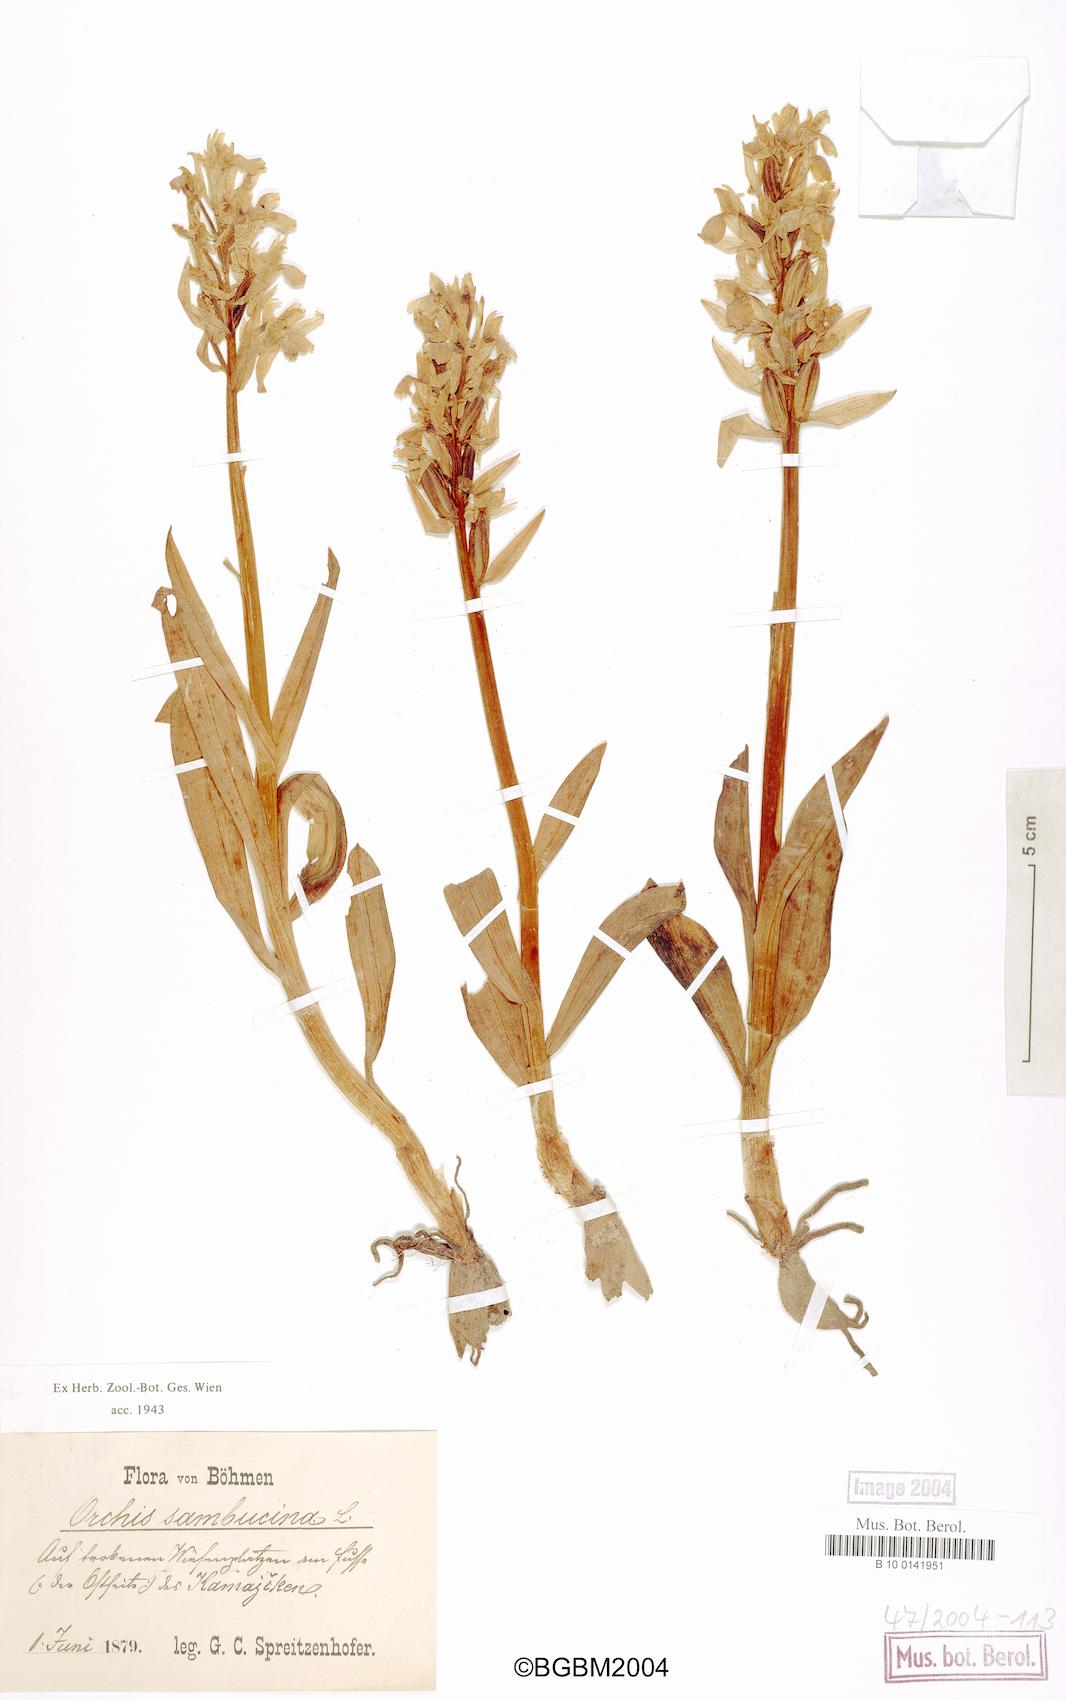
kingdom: Plantae
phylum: Tracheophyta
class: Liliopsida
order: Asparagales
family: Orchidaceae
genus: Dactylorhiza
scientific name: Dactylorhiza sambucina
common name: Elder-flowered orchid
